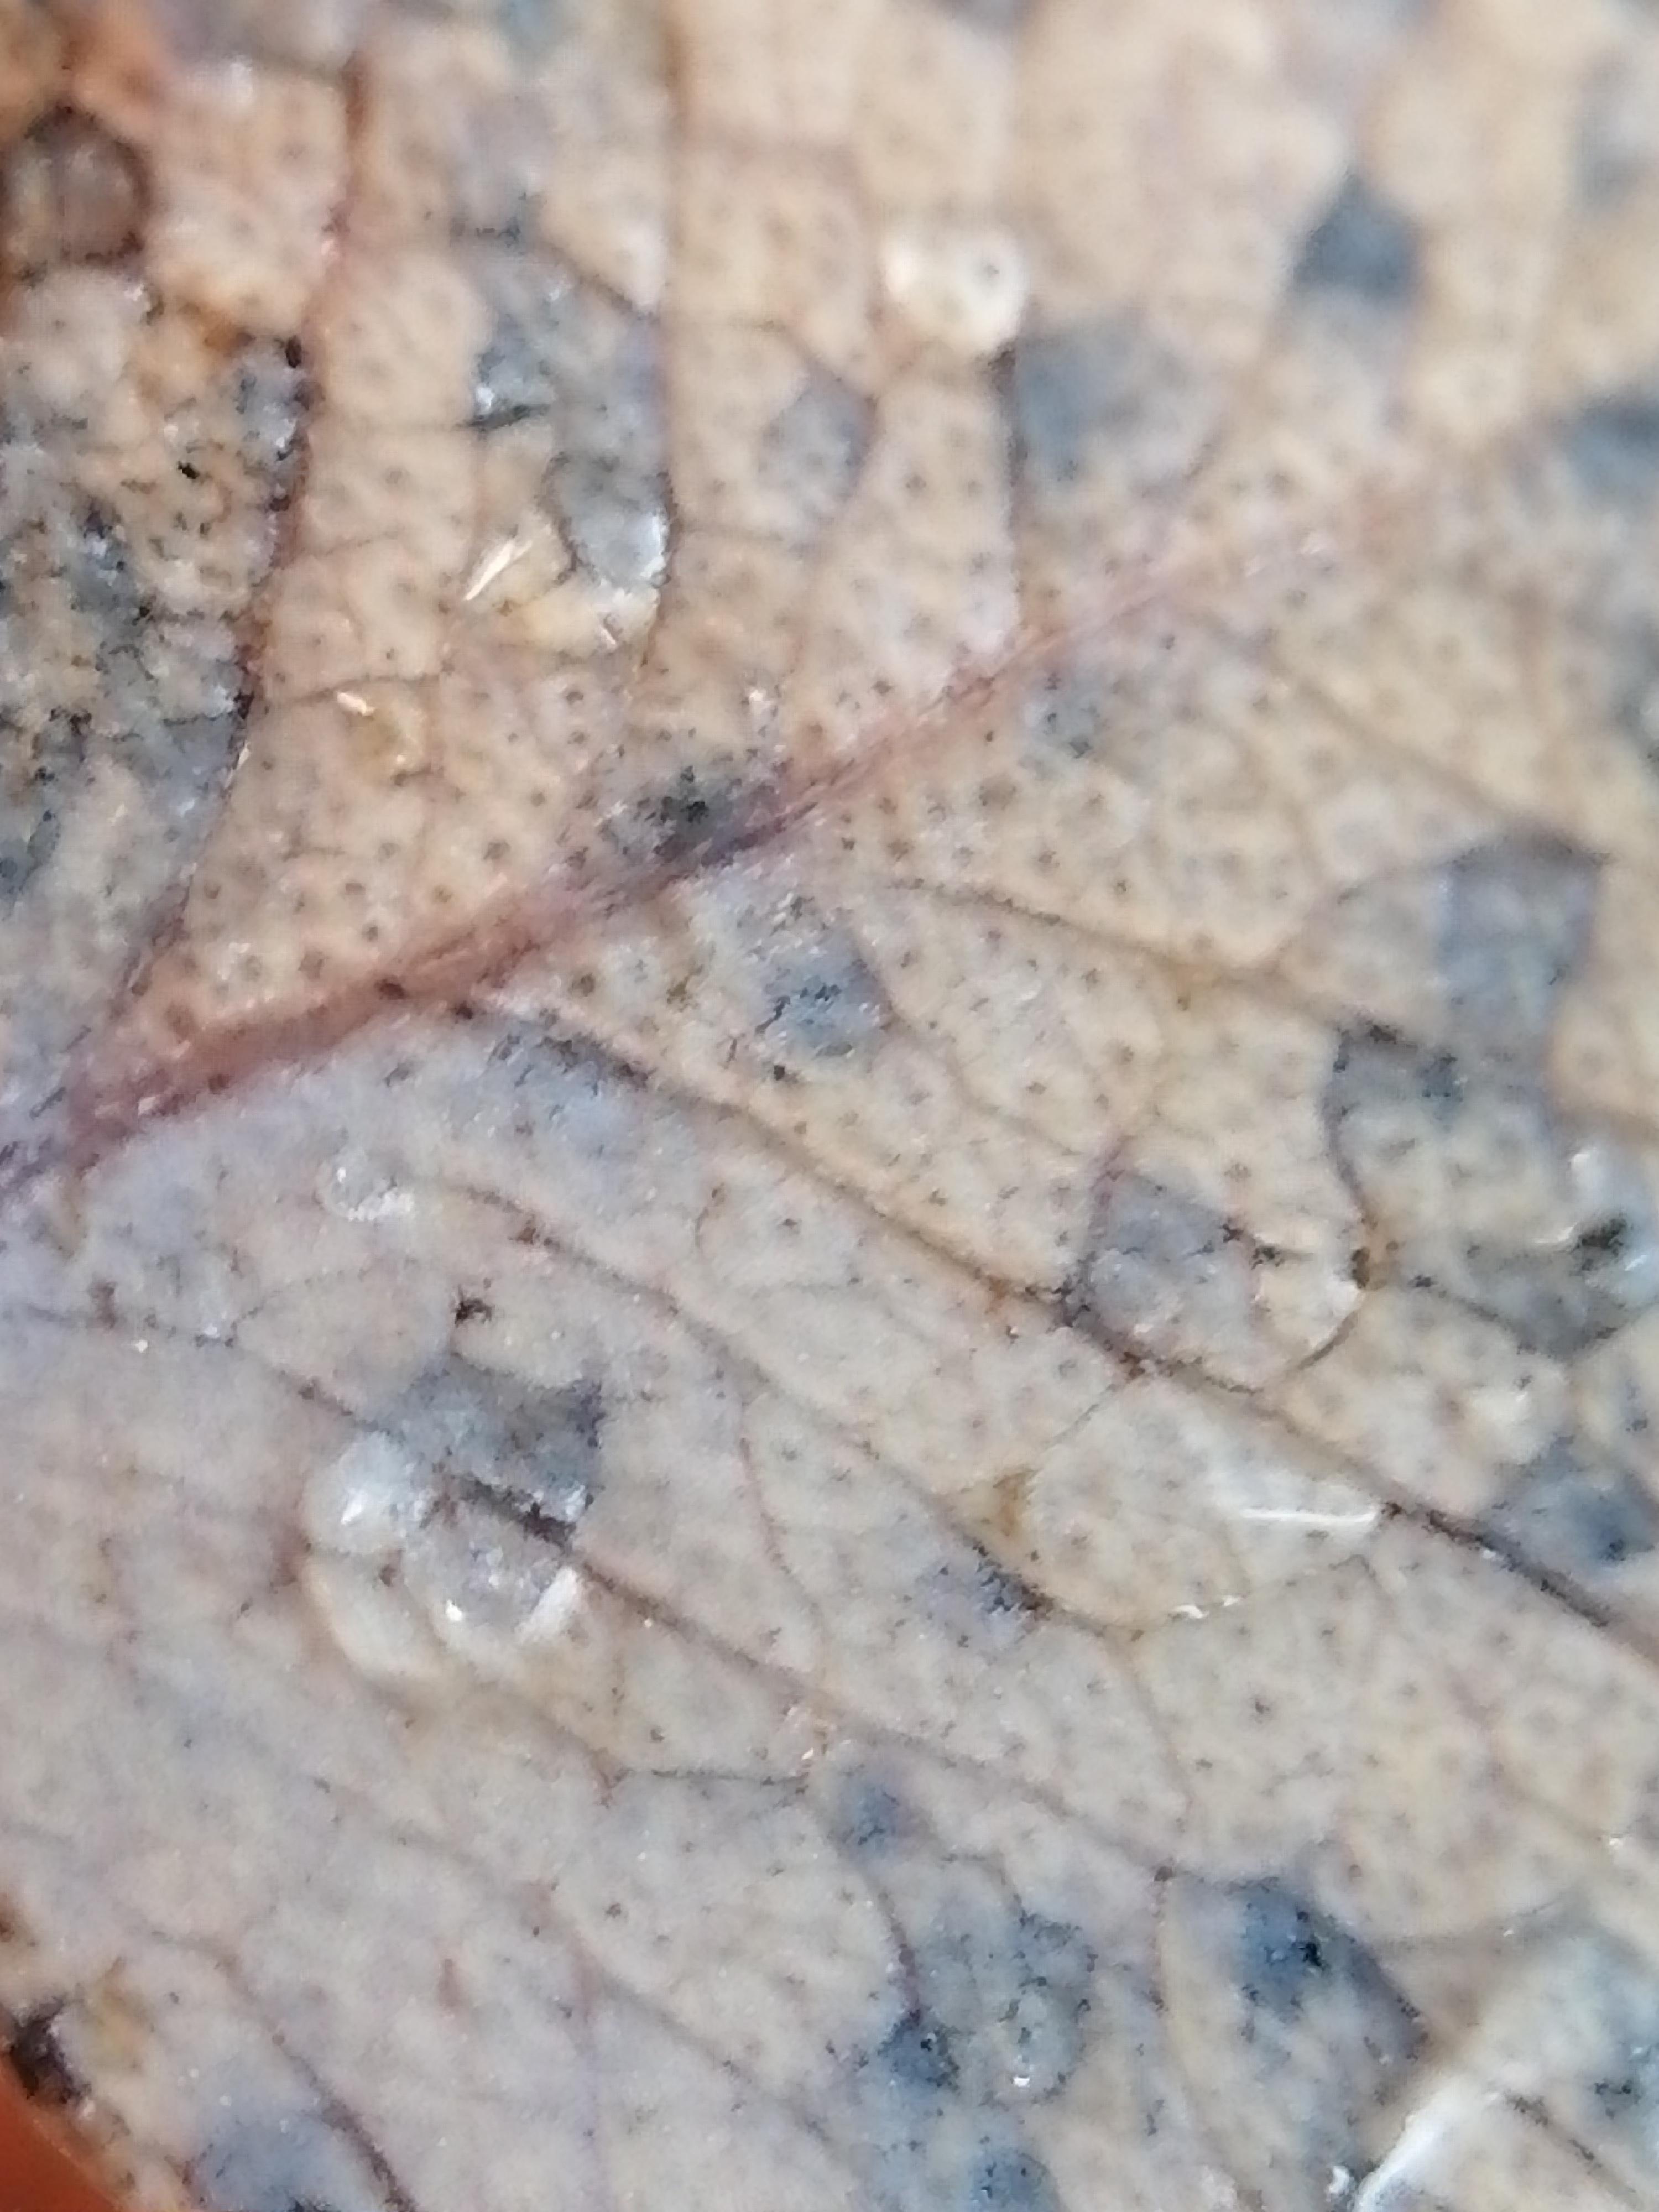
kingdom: Fungi
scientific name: Fungi
